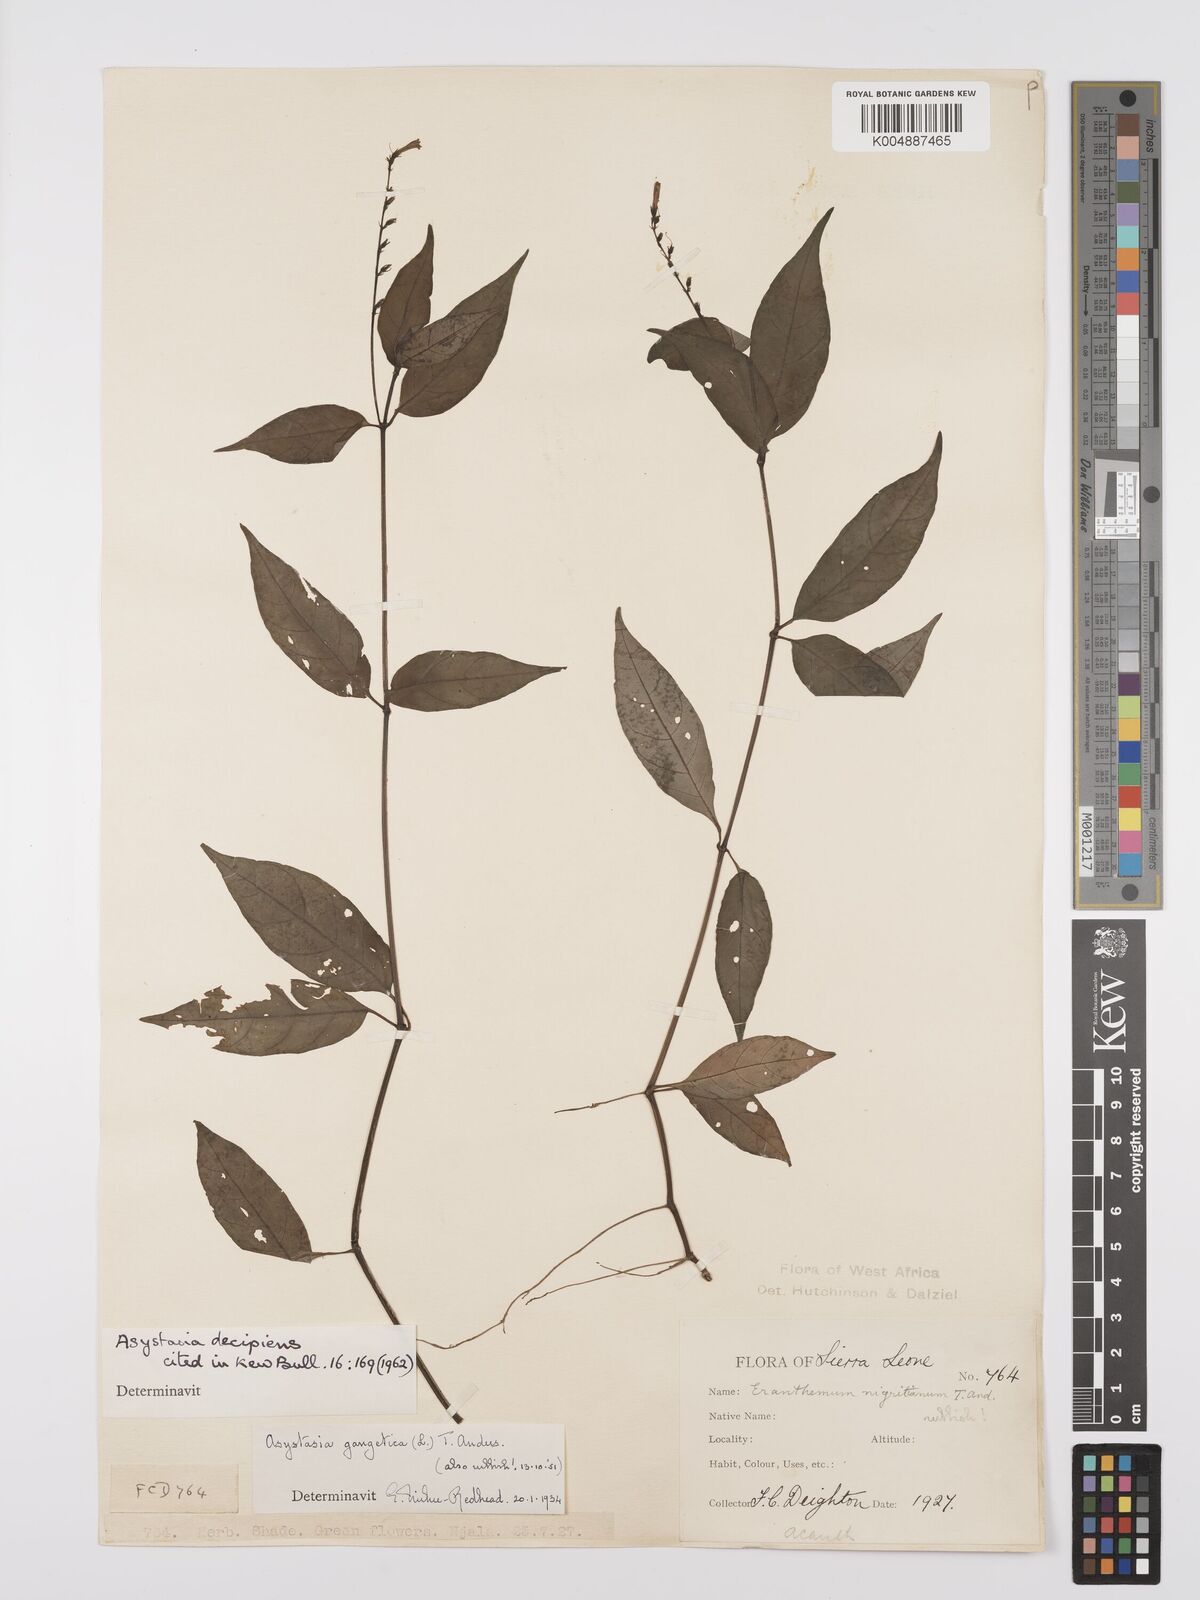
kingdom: Plantae
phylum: Tracheophyta
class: Magnoliopsida
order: Lamiales
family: Acanthaceae
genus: Asystasia
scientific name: Asystasia leptostachya
